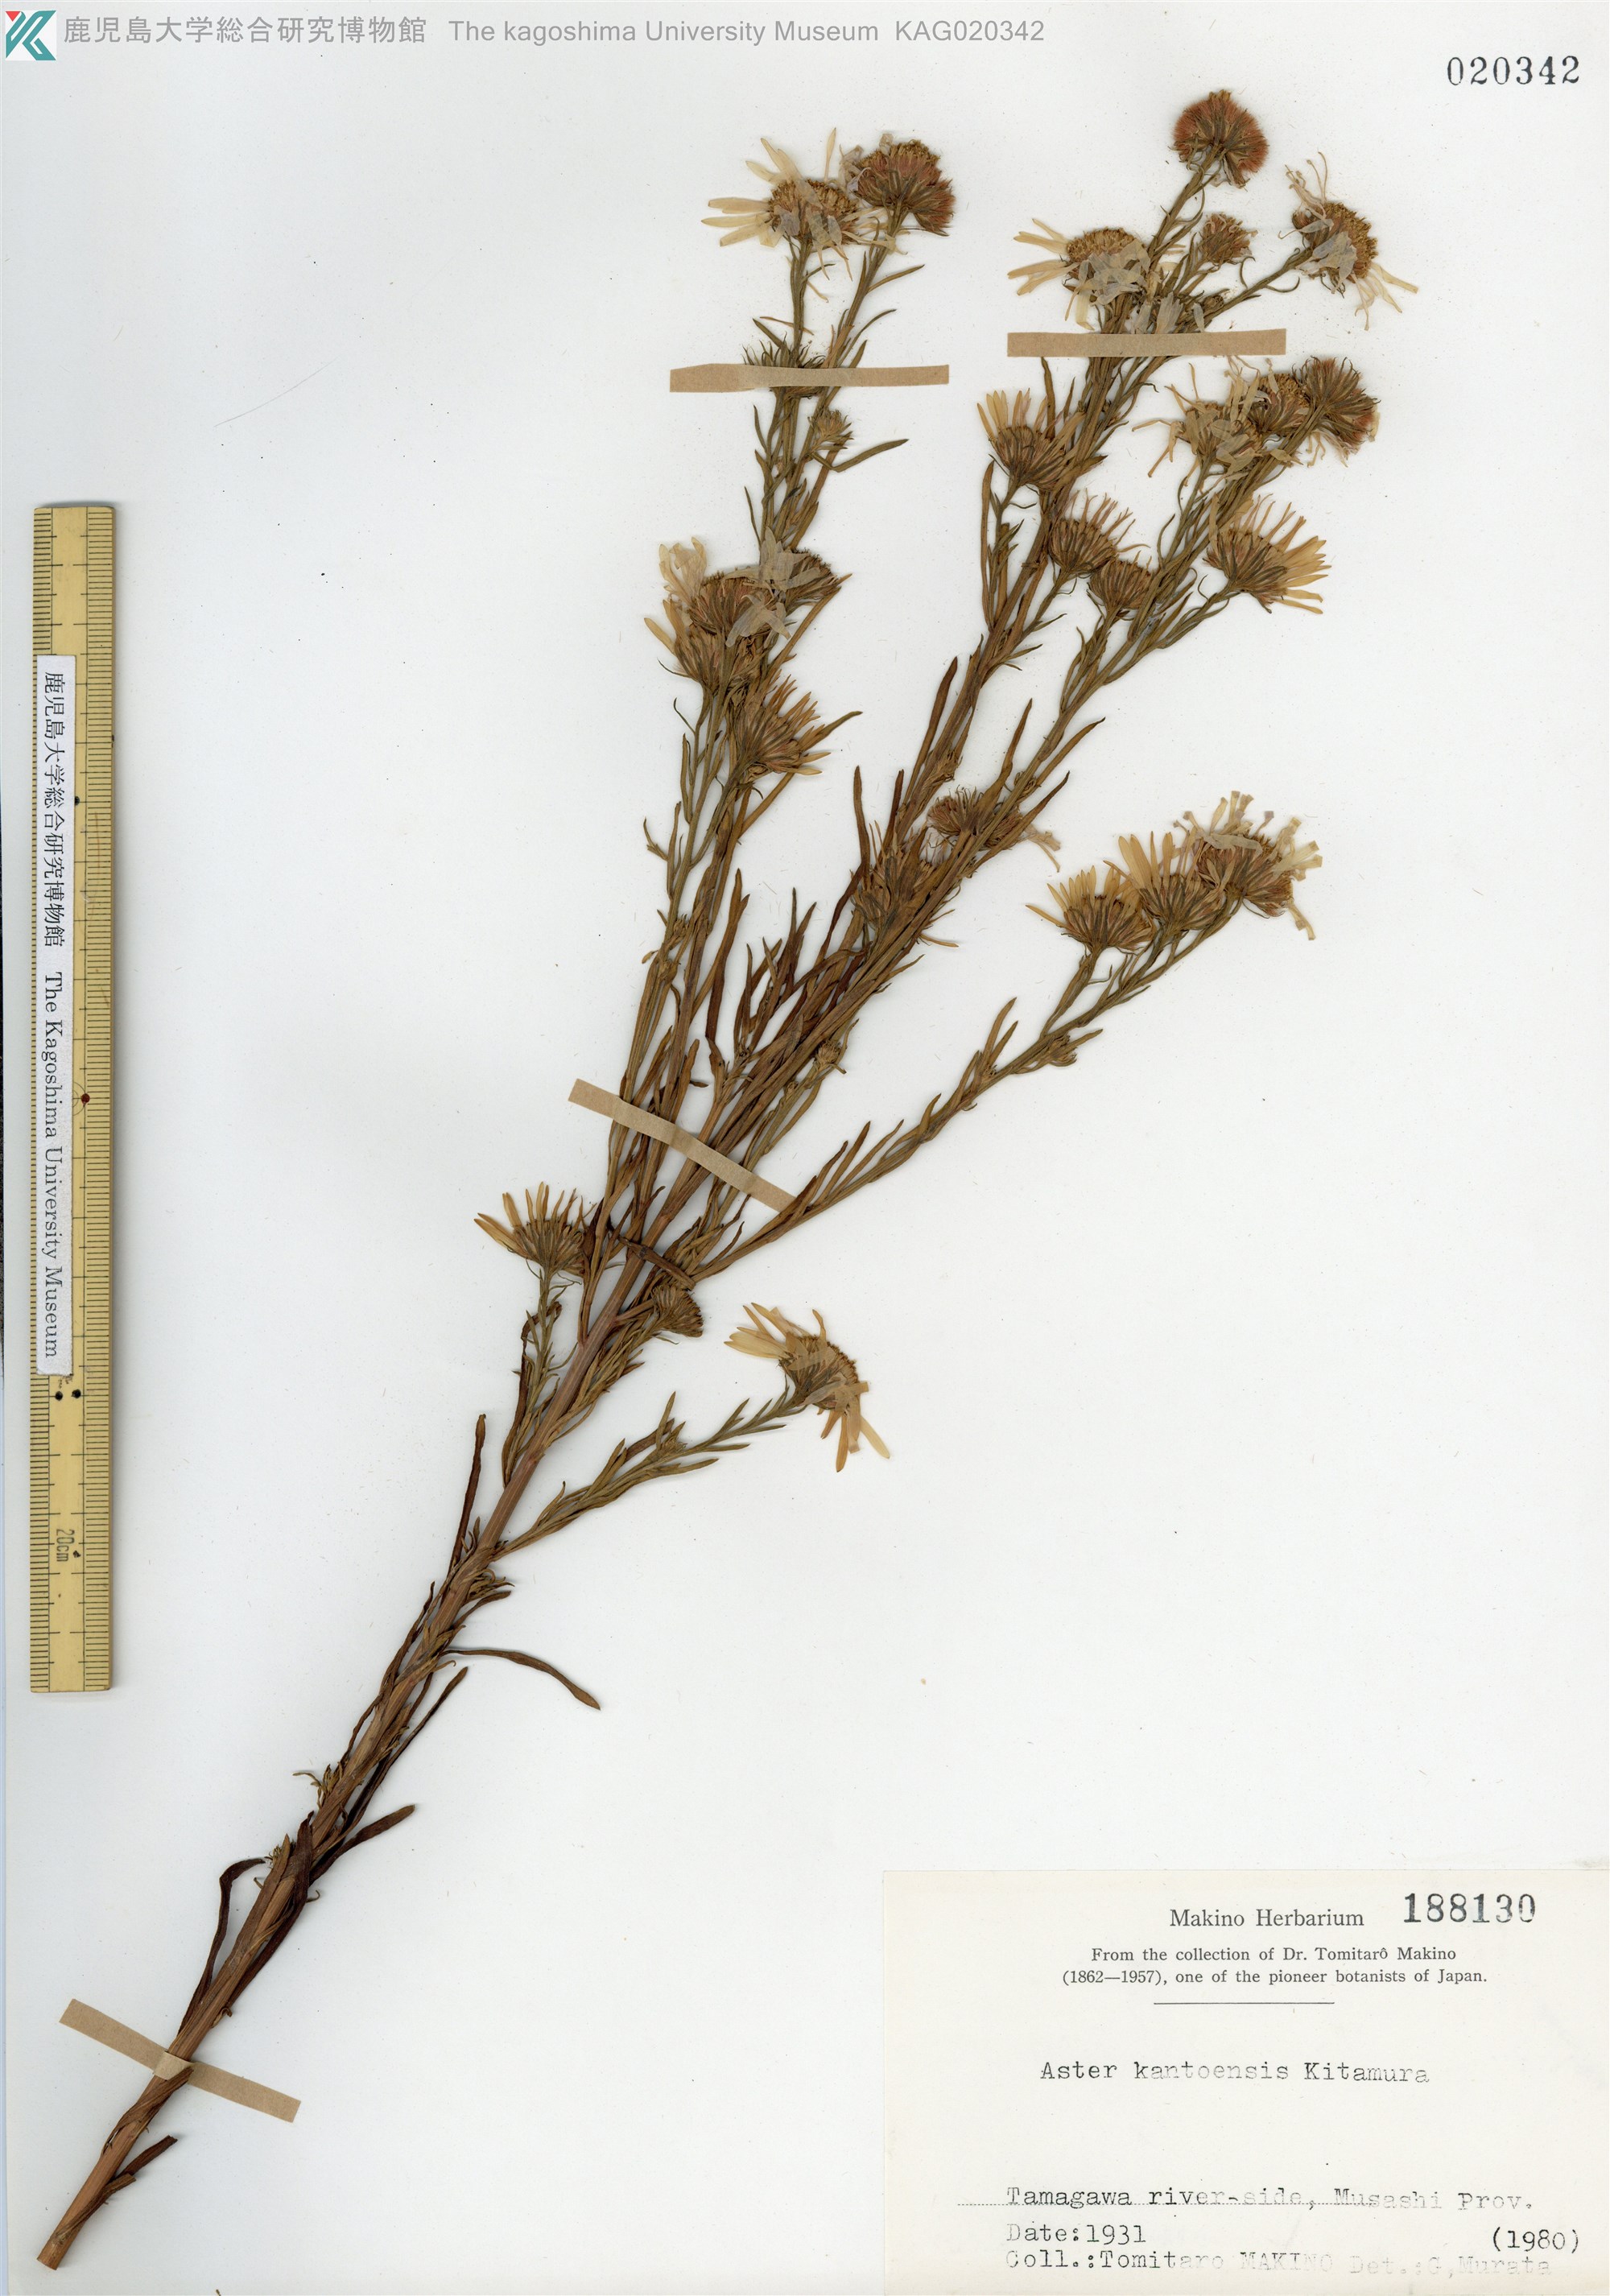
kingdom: Plantae
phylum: Tracheophyta
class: Magnoliopsida
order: Asterales
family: Asteraceae
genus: Aster
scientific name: Aster kantoensis
